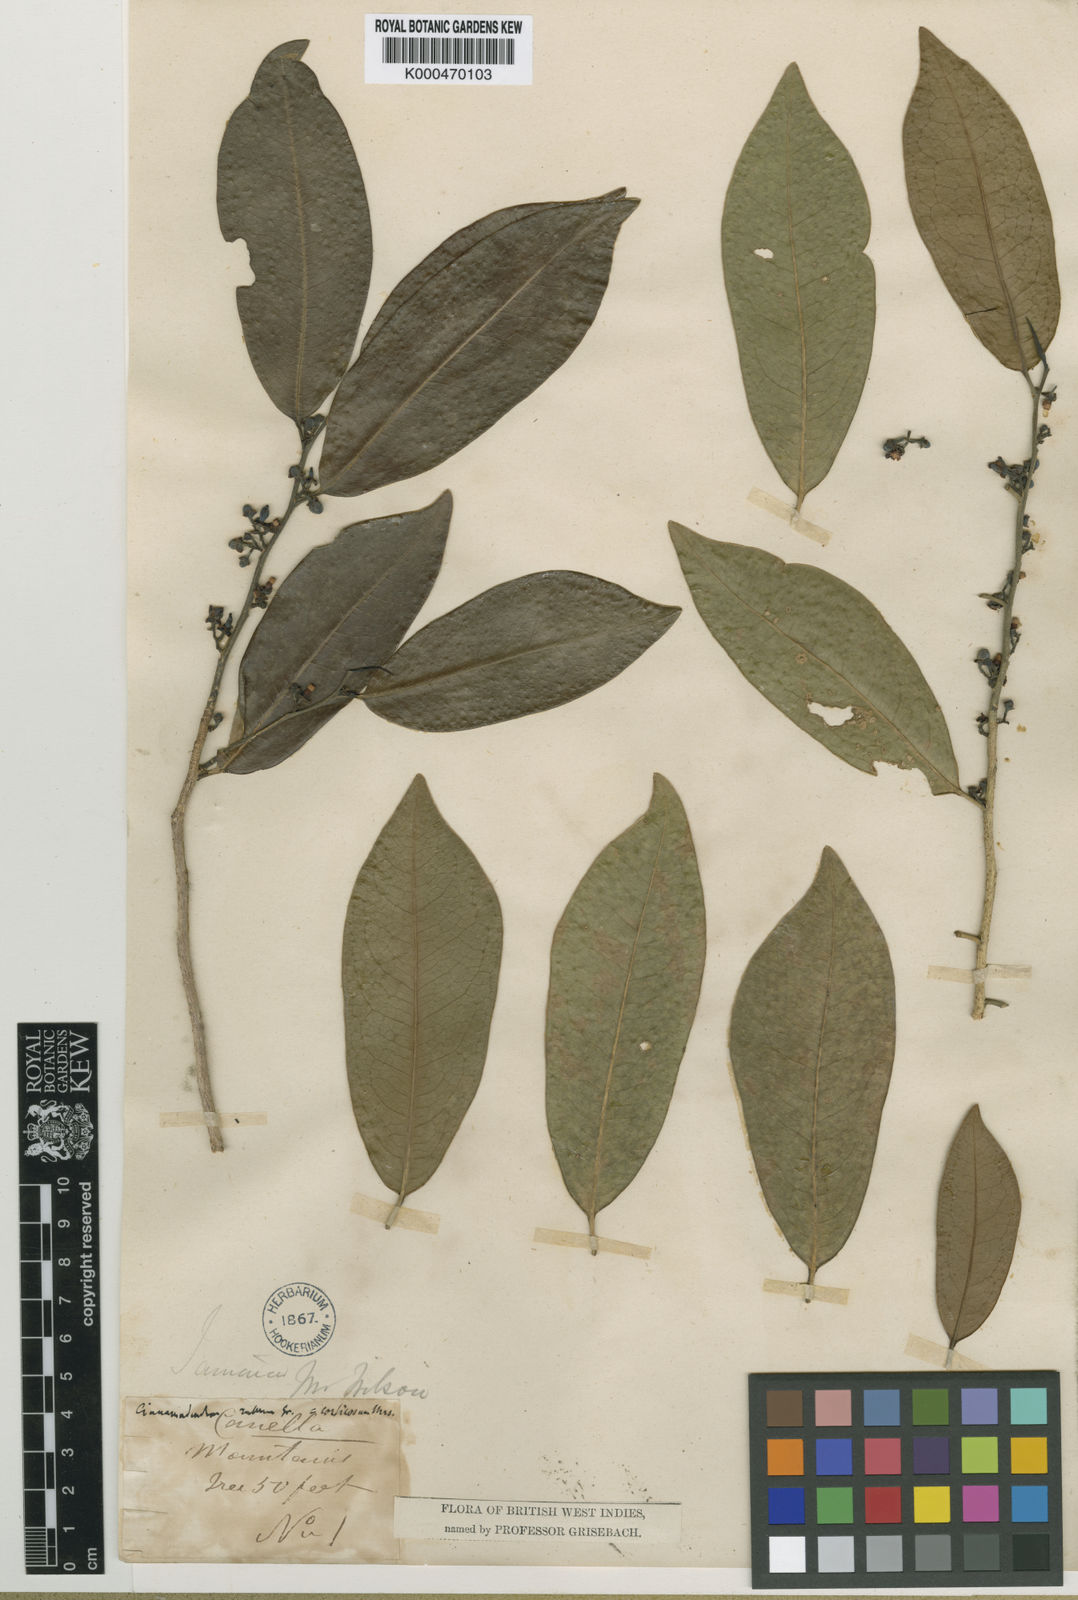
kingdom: Plantae
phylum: Tracheophyta
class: Magnoliopsida
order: Canellales
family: Canellaceae
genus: Canella
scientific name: Canella
